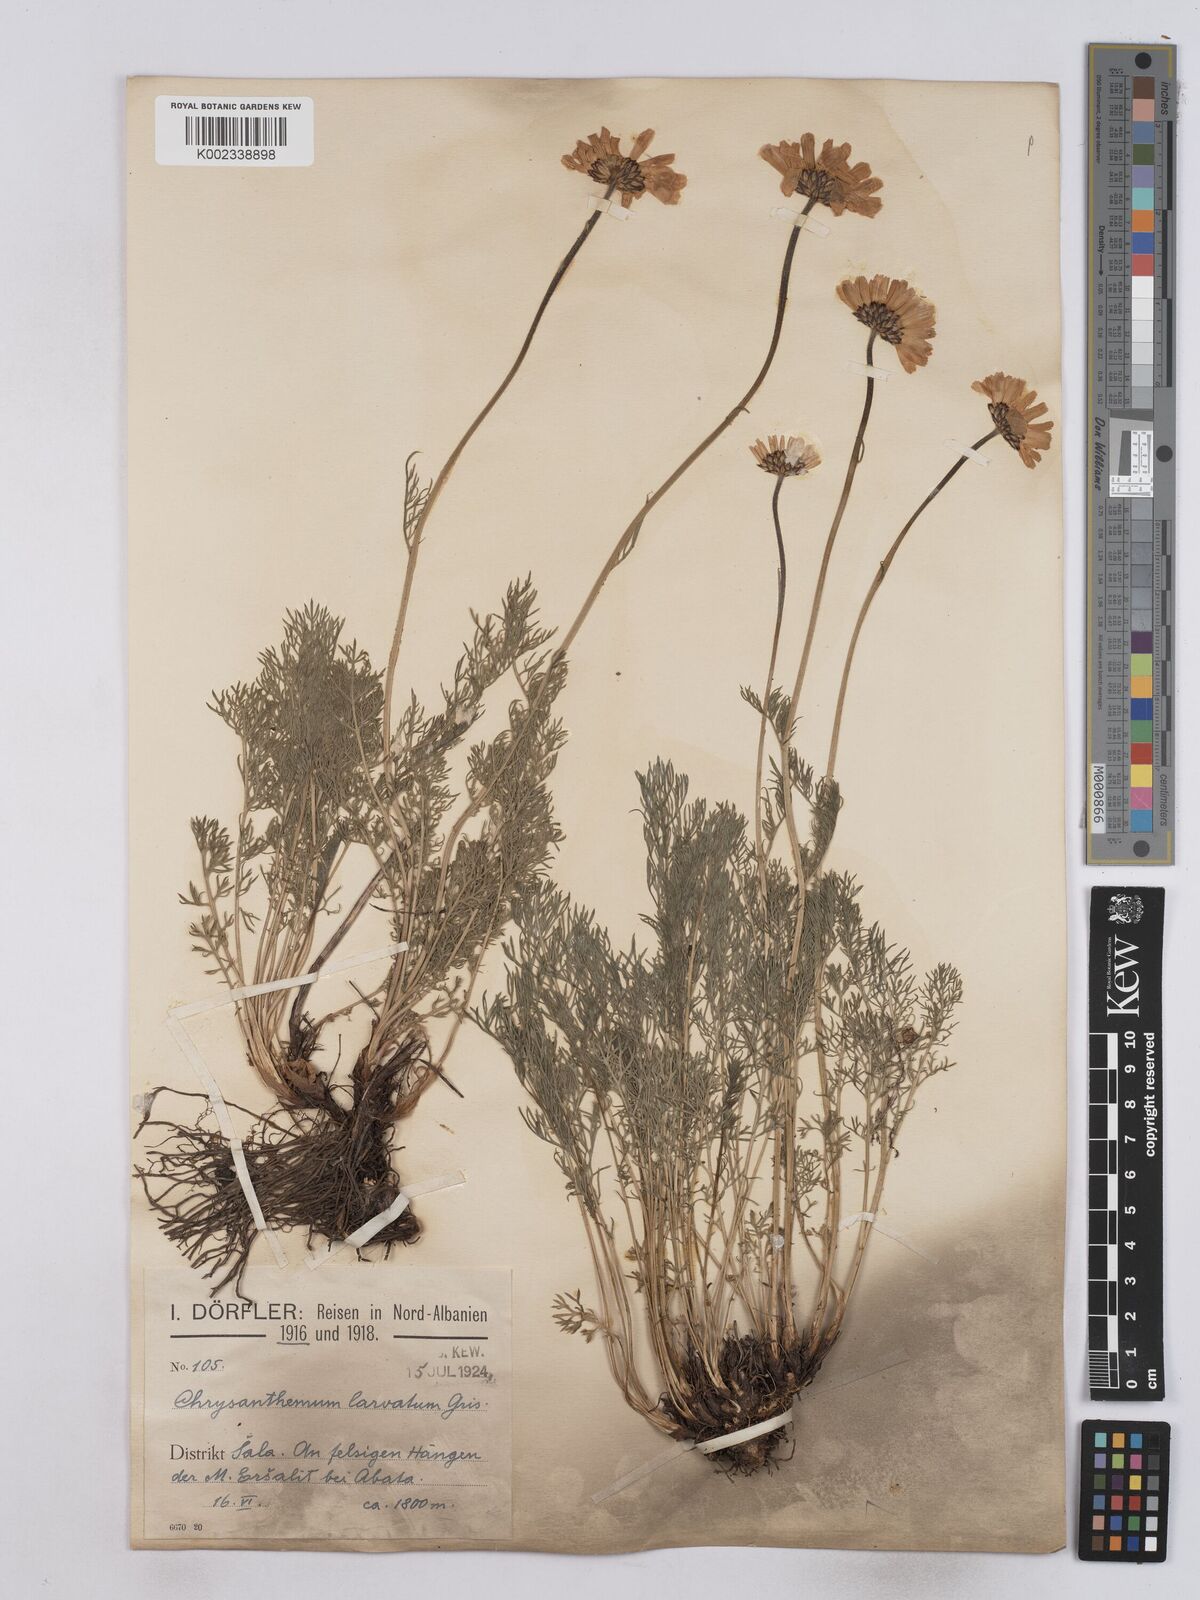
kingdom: Plantae
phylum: Tracheophyta
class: Magnoliopsida
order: Asterales
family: Asteraceae
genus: Leucanthemum
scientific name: Leucanthemum coronopifolium
